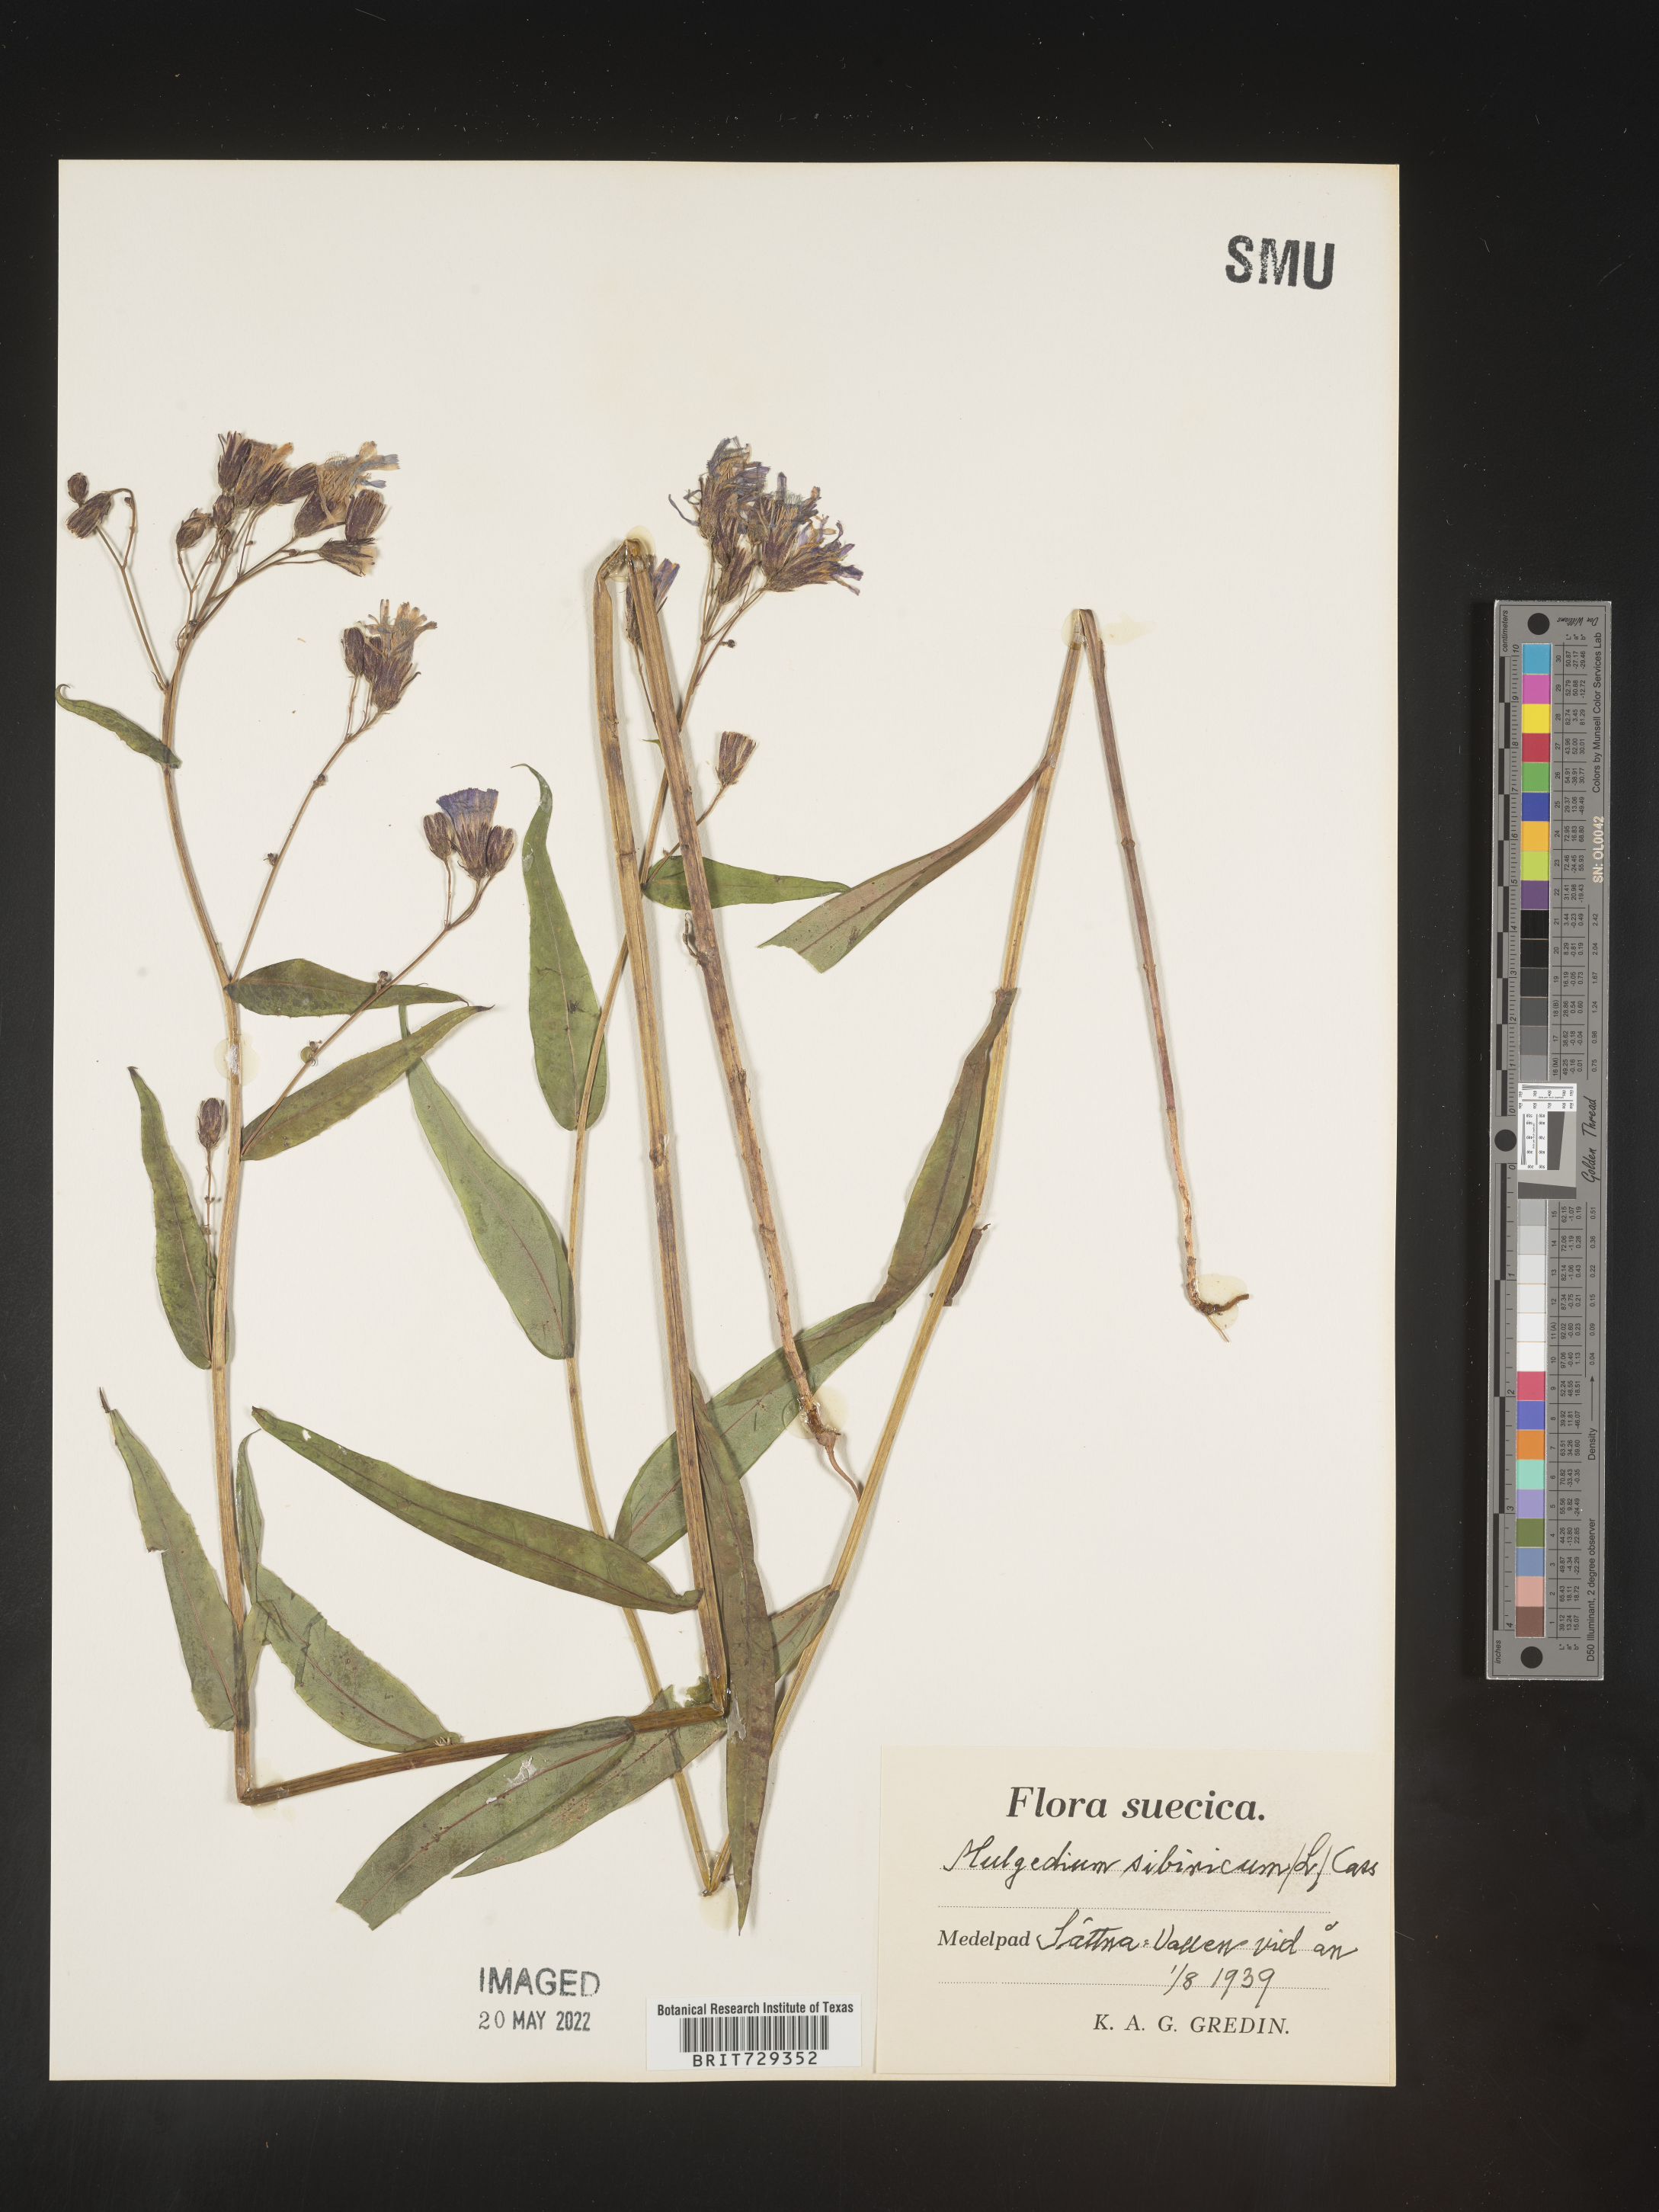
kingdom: Plantae
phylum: Tracheophyta
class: Magnoliopsida
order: Asterales
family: Asteraceae
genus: Lactuca
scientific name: Lactuca
